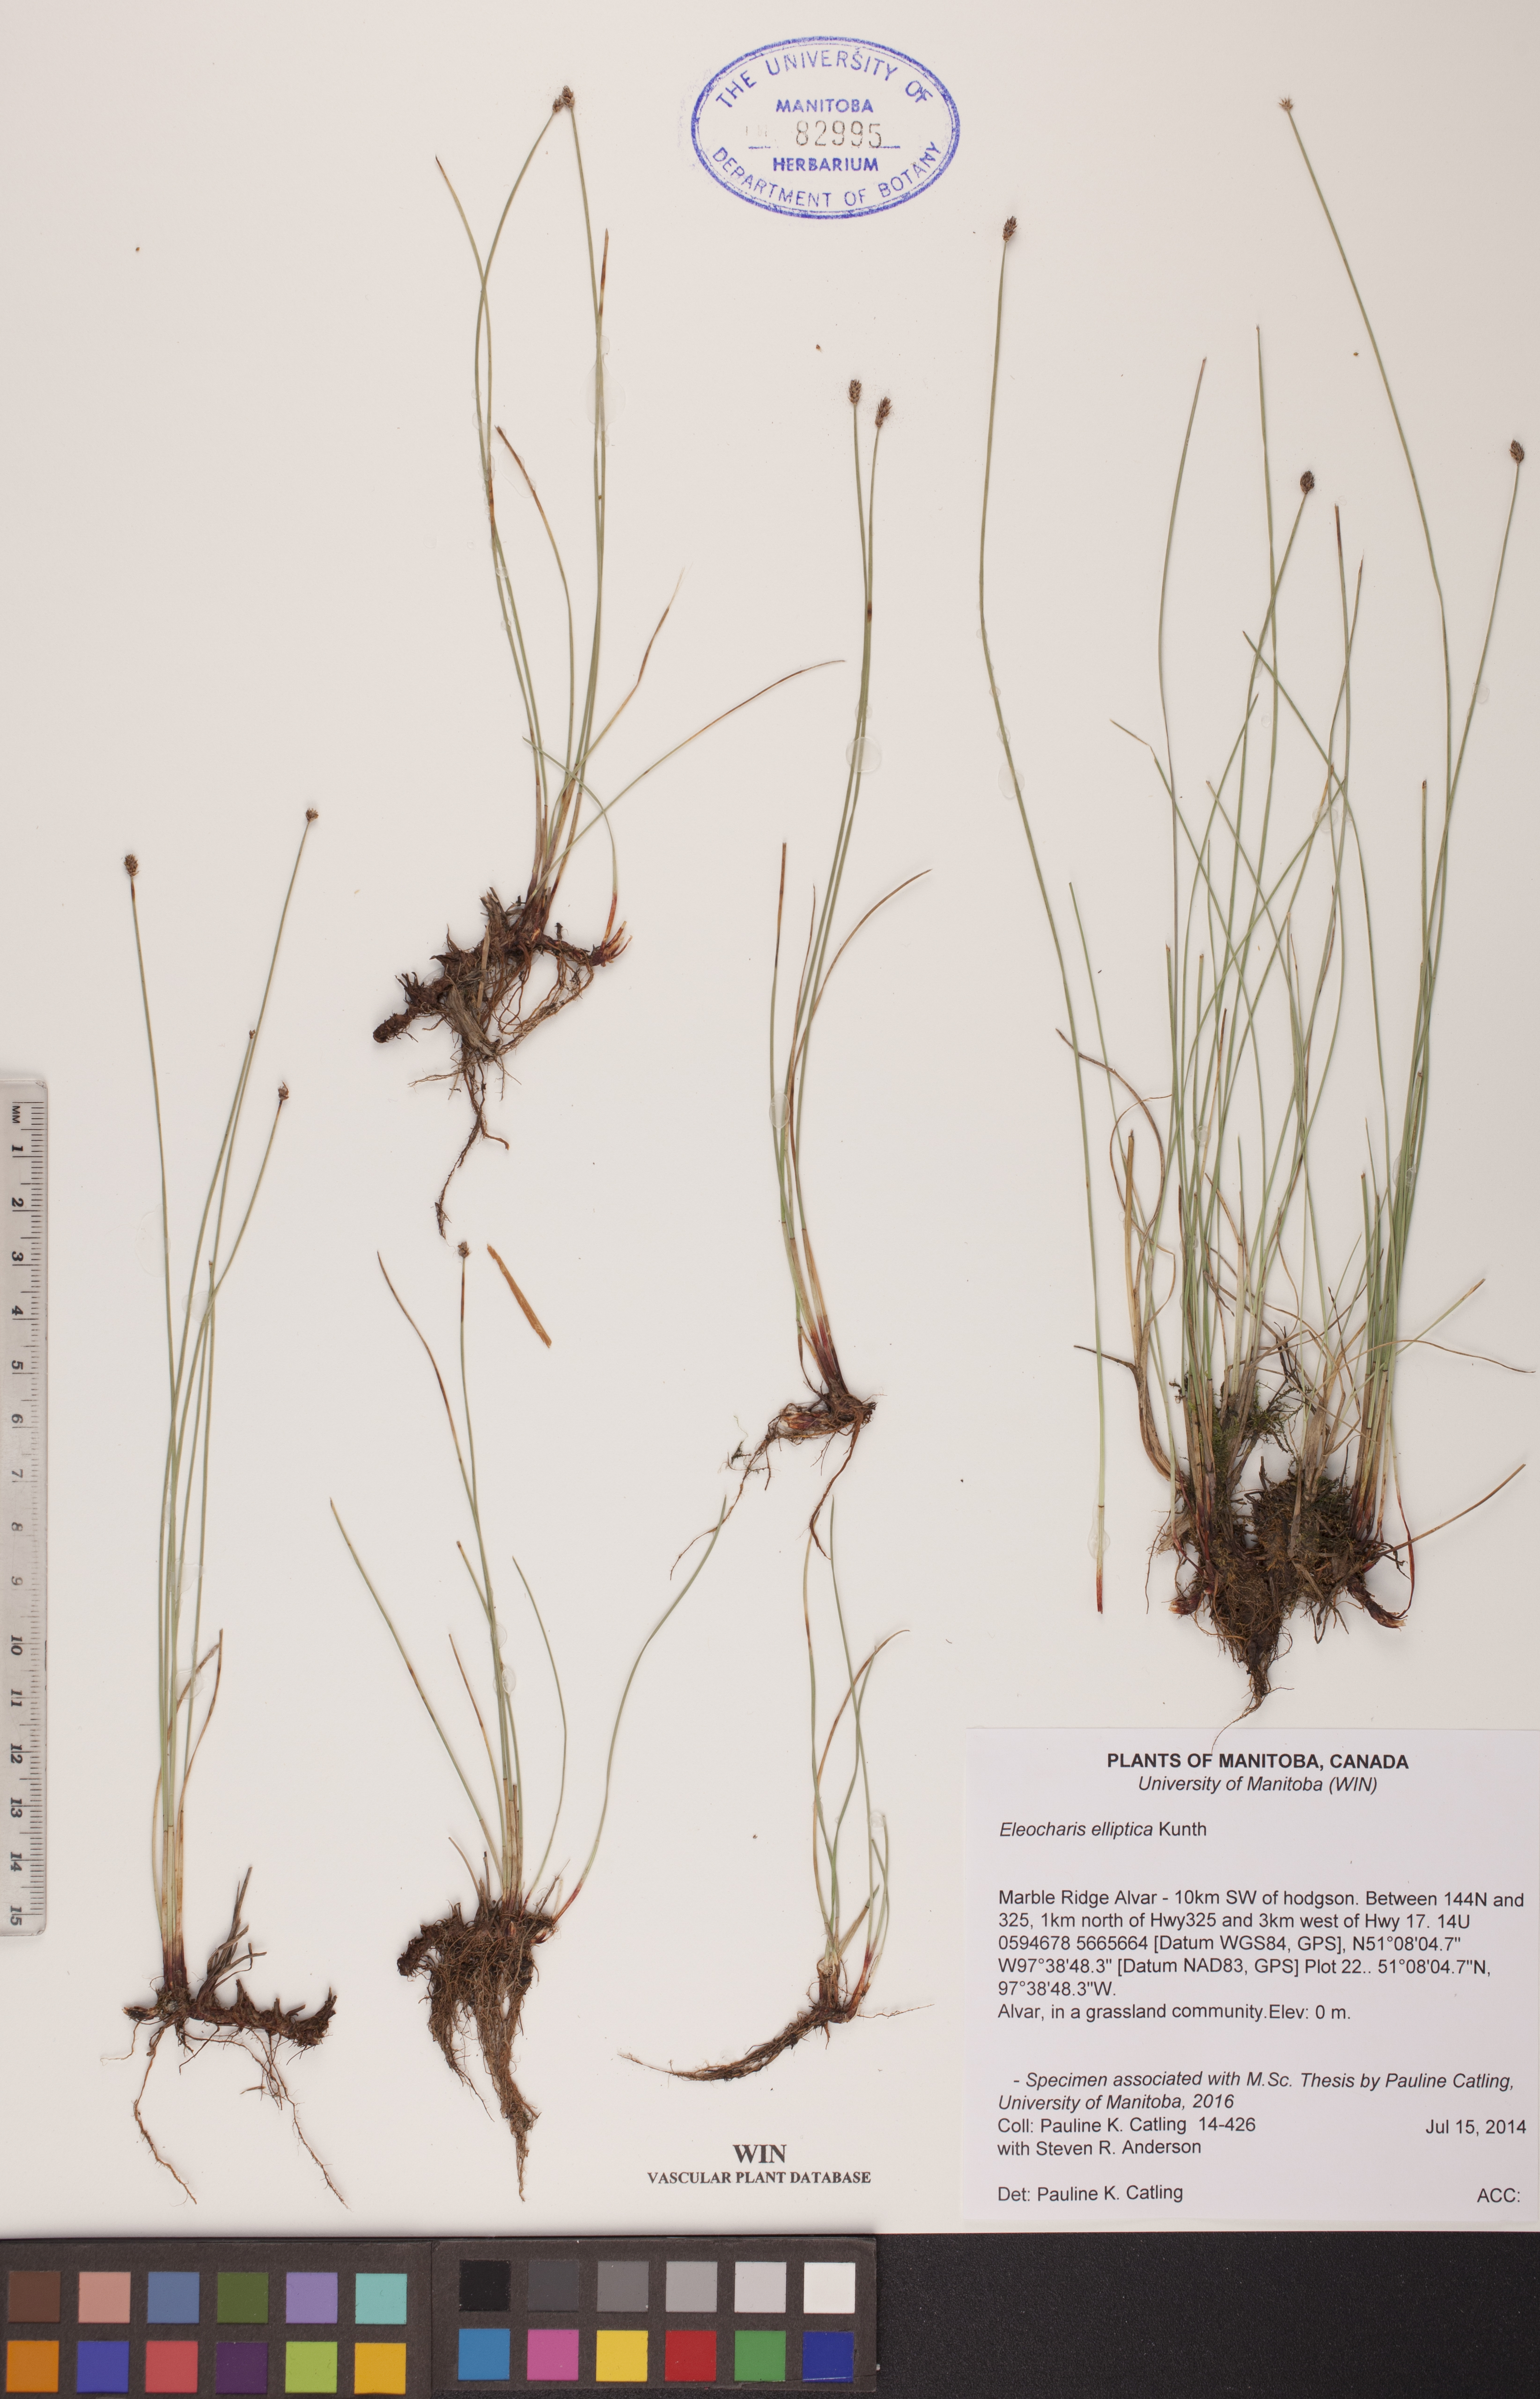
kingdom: Plantae
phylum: Tracheophyta
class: Liliopsida
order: Poales
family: Cyperaceae
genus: Eleocharis
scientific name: Eleocharis elliptica
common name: Capitate spikerush
